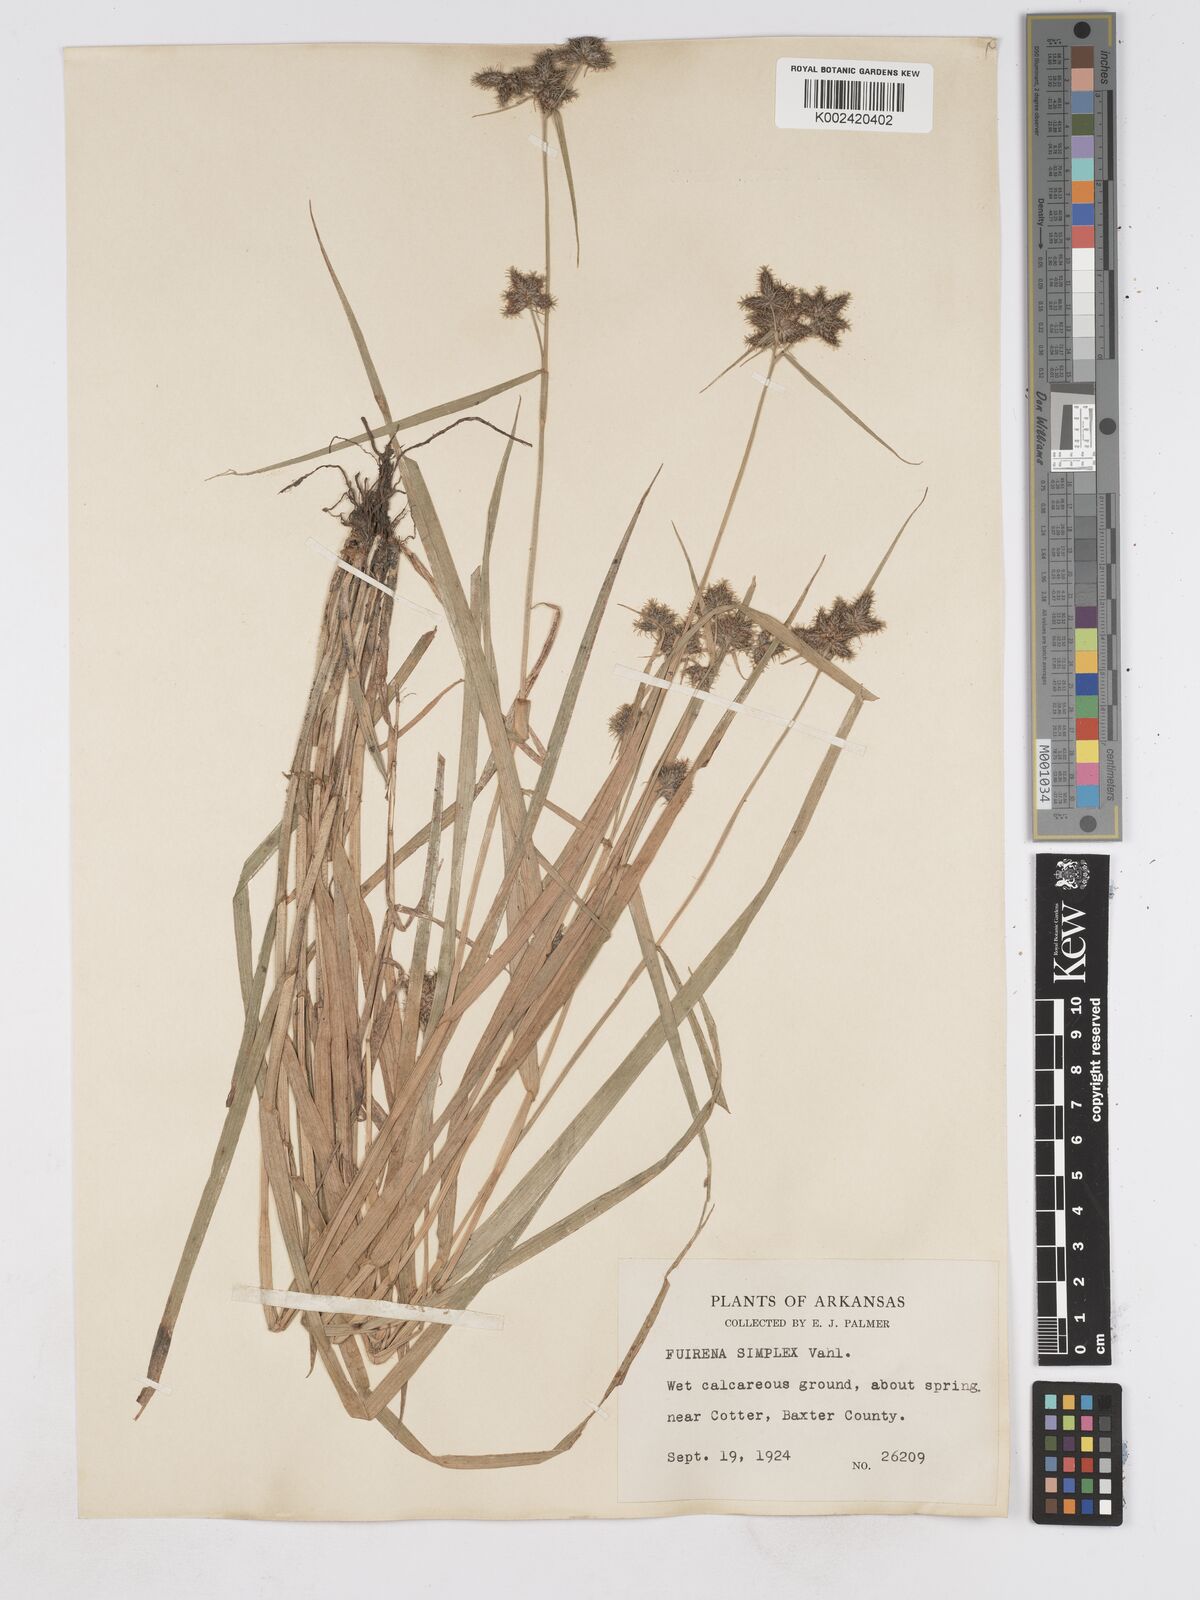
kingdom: Plantae
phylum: Tracheophyta
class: Liliopsida
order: Poales
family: Cyperaceae
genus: Fuirena
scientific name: Fuirena simplex
